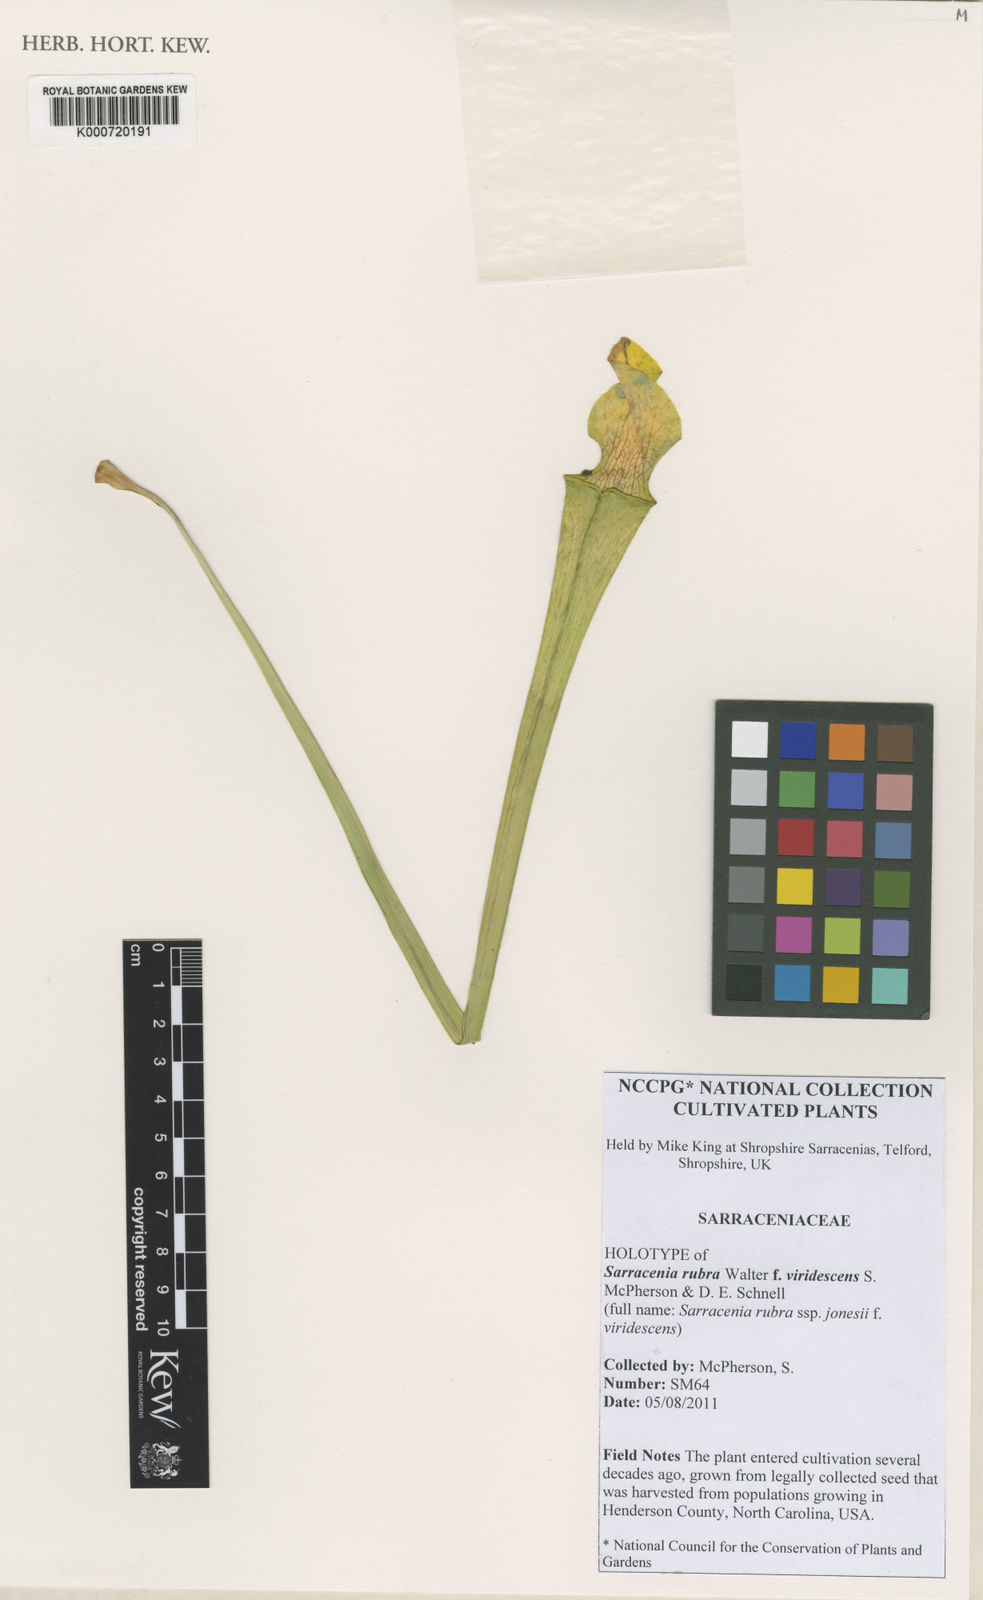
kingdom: Plantae
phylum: Tracheophyta
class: Magnoliopsida
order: Ericales
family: Sarraceniaceae
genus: Sarracenia
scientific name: Sarracenia rubra
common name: Sweet pitcherplant
